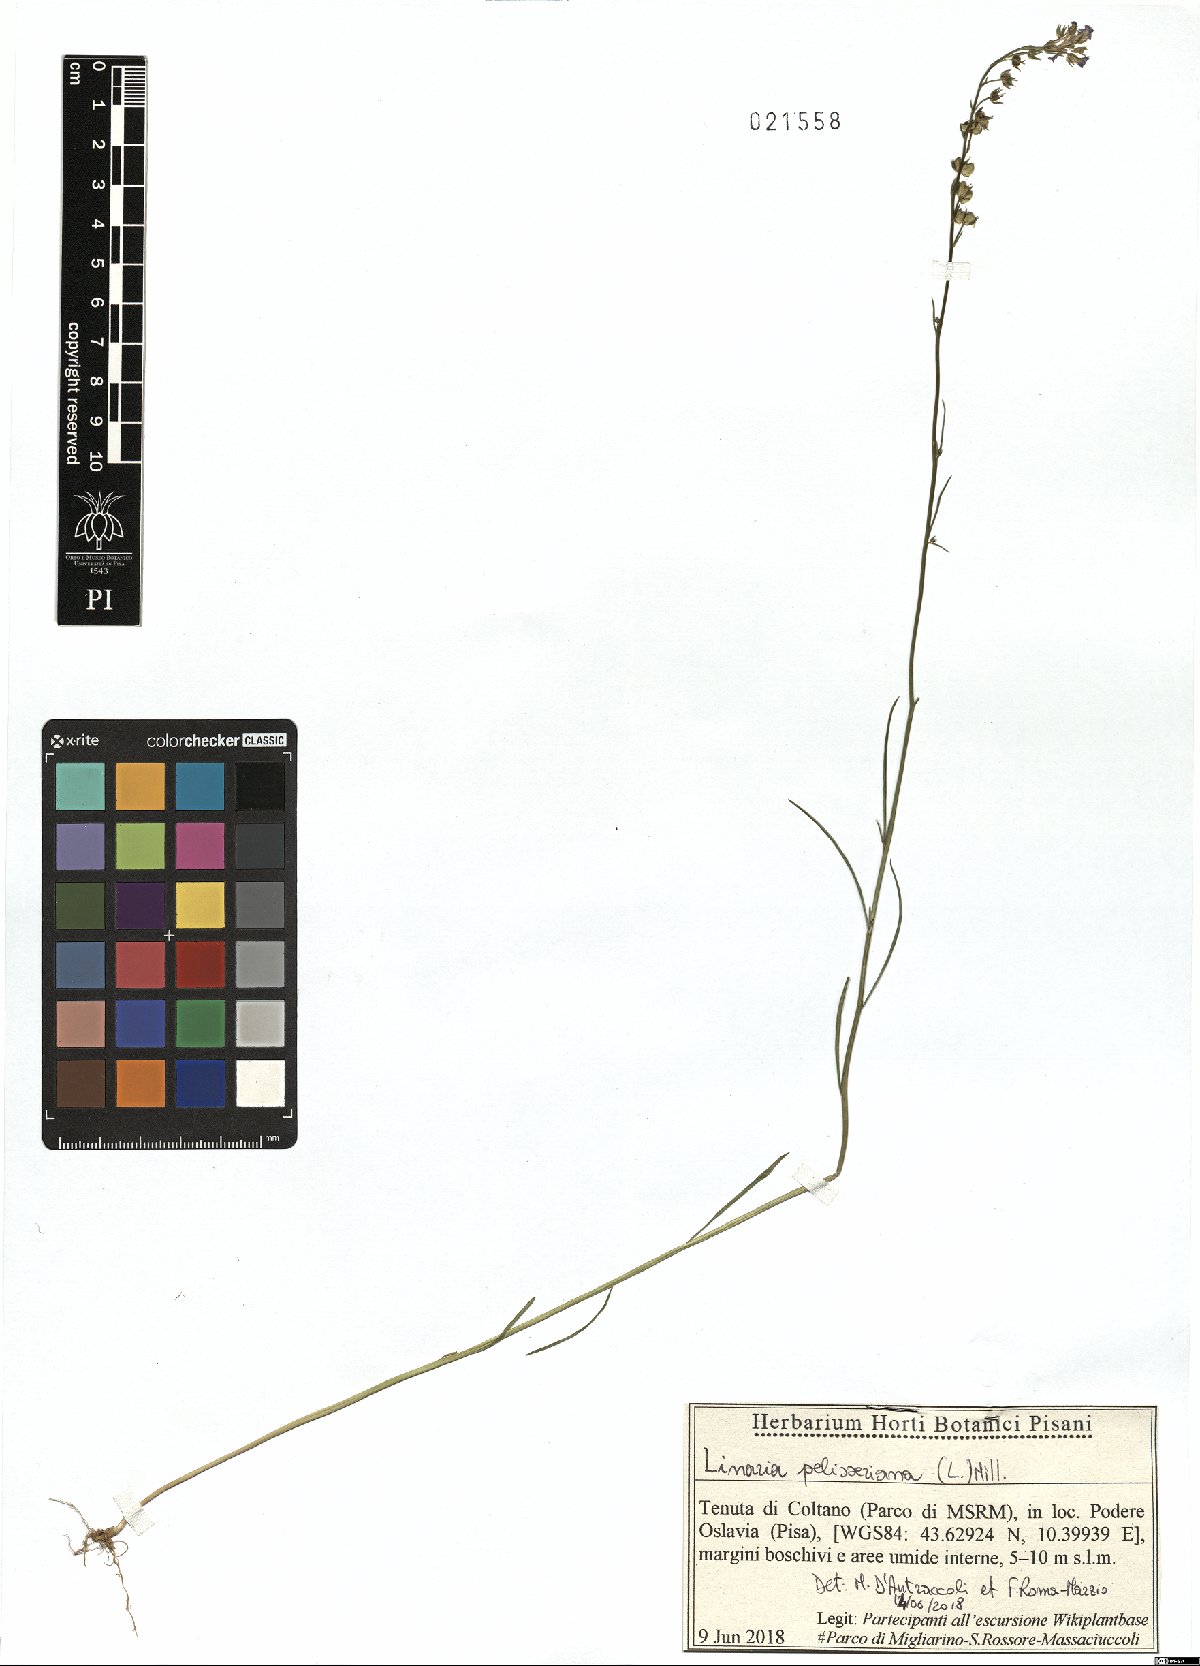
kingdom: Plantae
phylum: Tracheophyta
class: Magnoliopsida
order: Lamiales
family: Plantaginaceae
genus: Linaria
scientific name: Linaria pelisseriana
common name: Jersey toadflax
